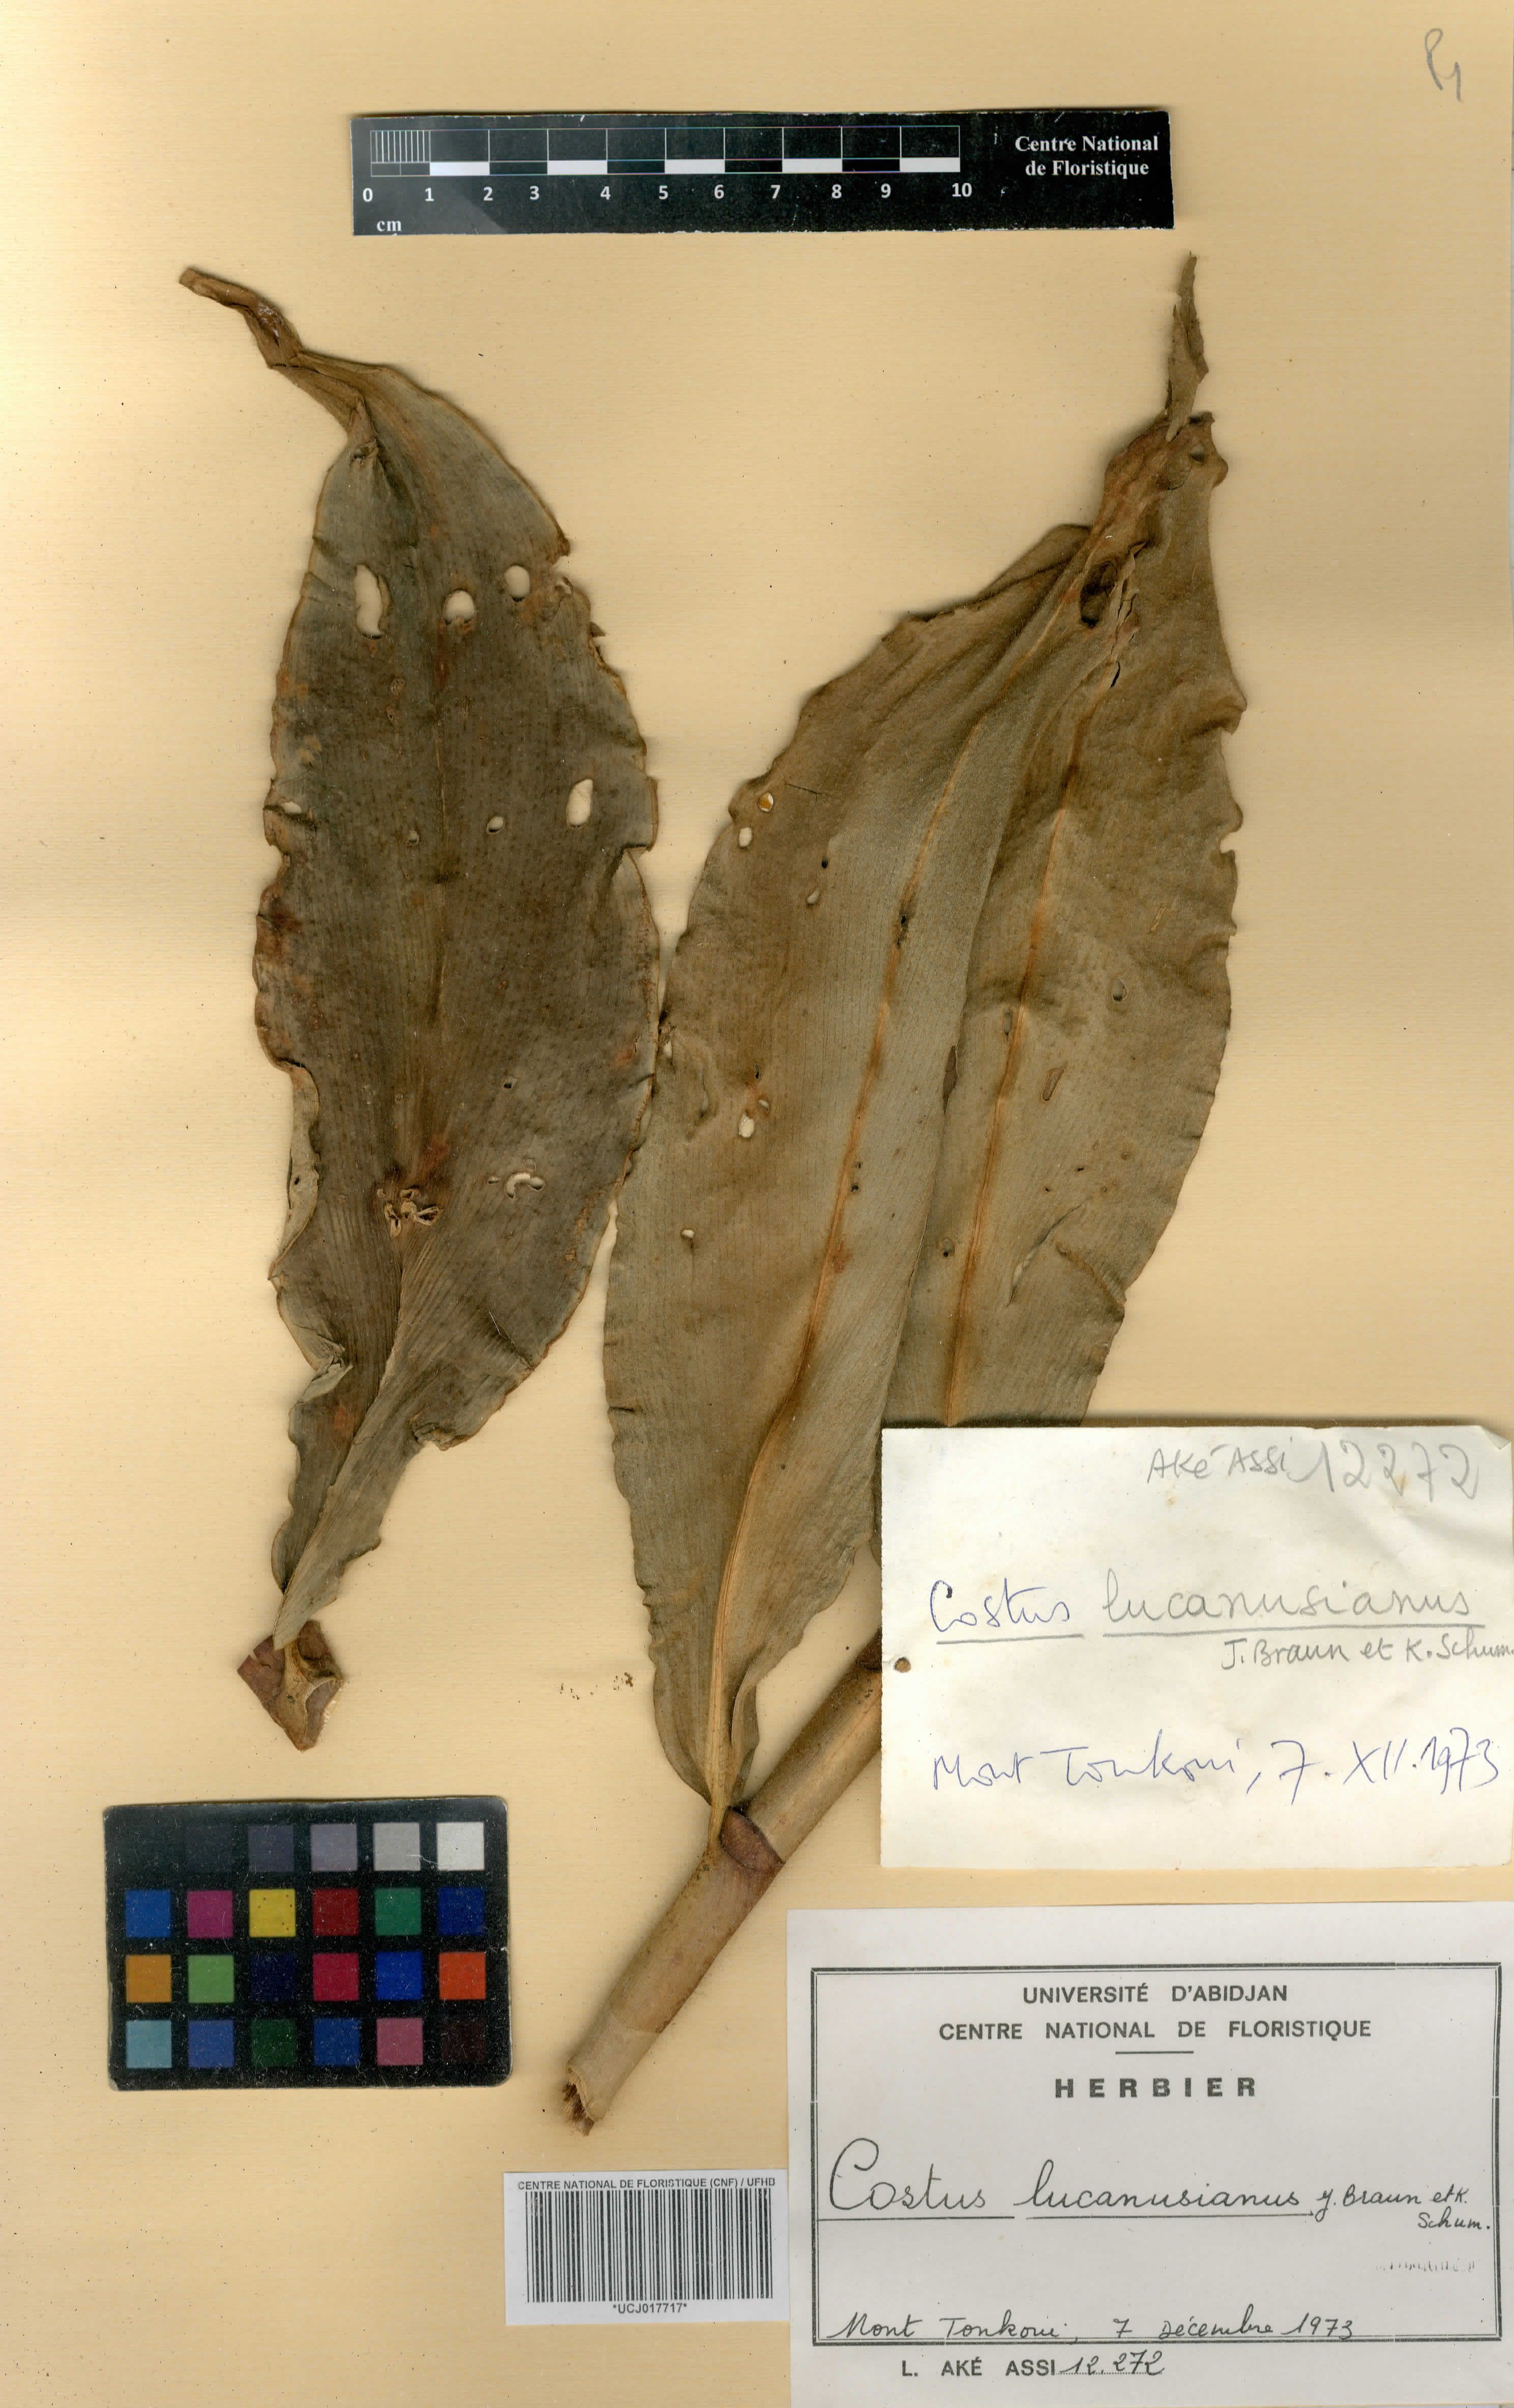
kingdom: Plantae
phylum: Tracheophyta
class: Liliopsida
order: Zingiberales
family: Costaceae
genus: Costus
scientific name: Costus lucanusianus
